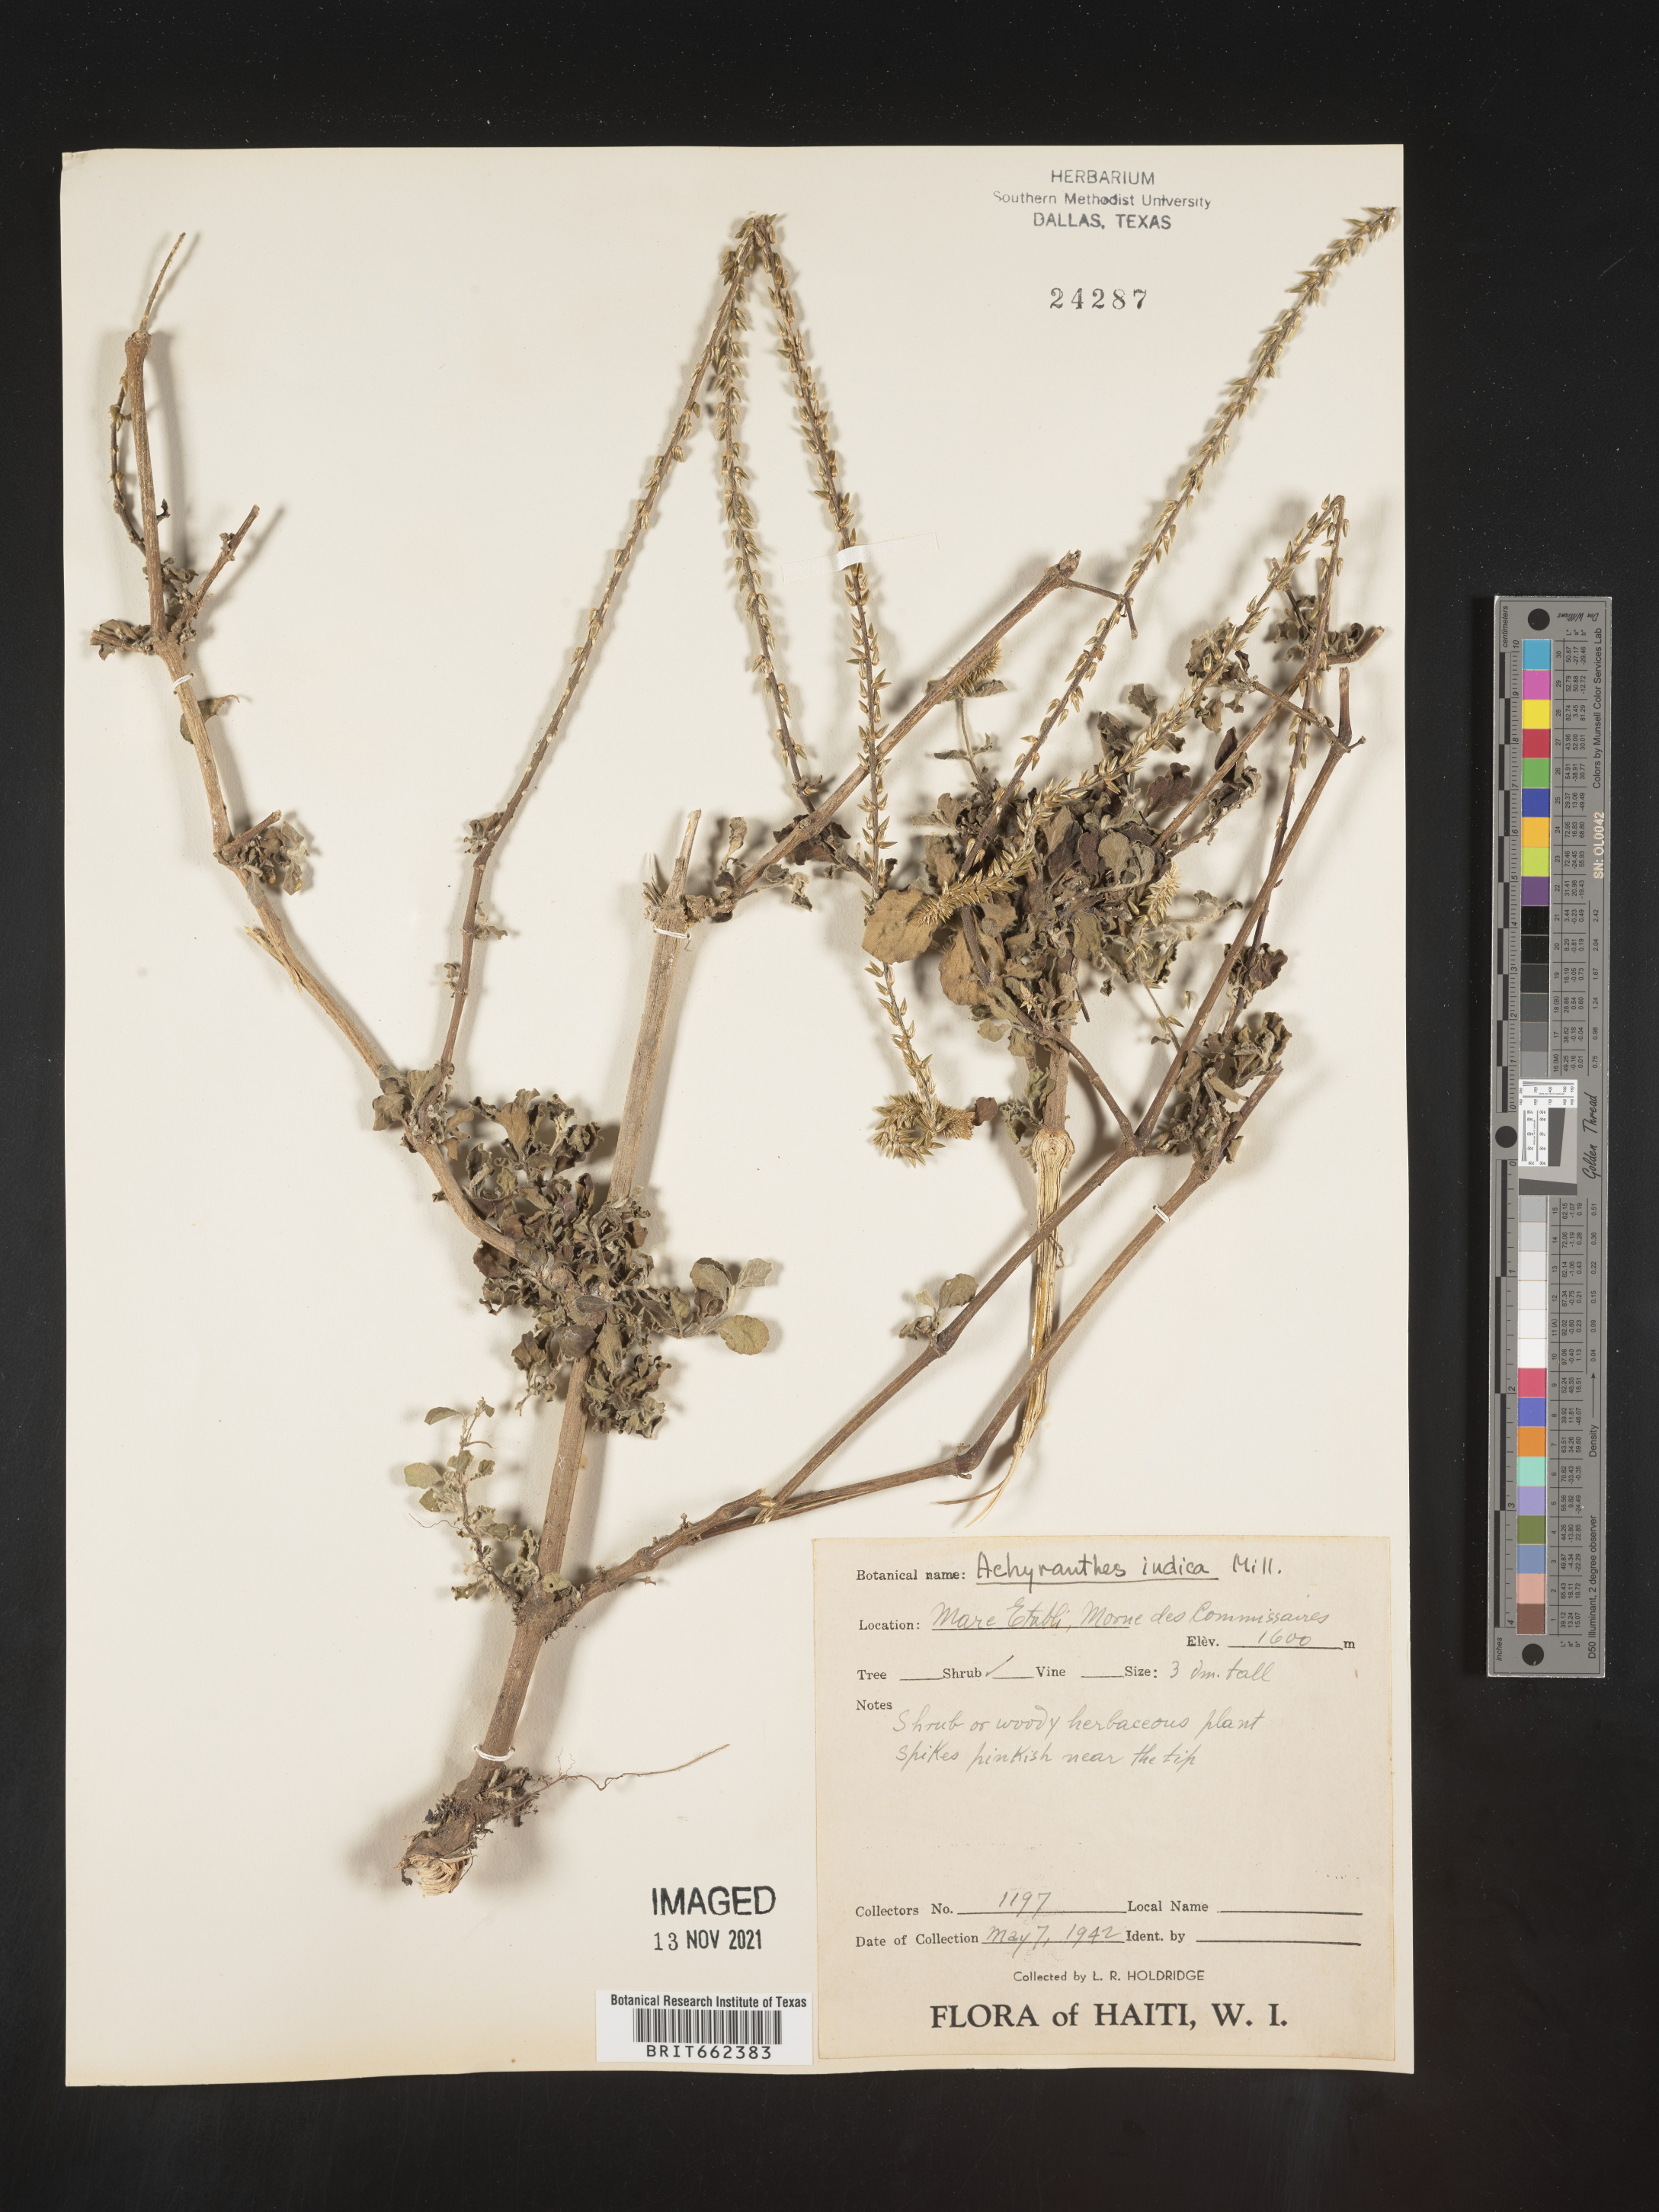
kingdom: Plantae
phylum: Tracheophyta
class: Magnoliopsida
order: Caryophyllales
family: Amaranthaceae
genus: Achyranthes
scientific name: Achyranthes
